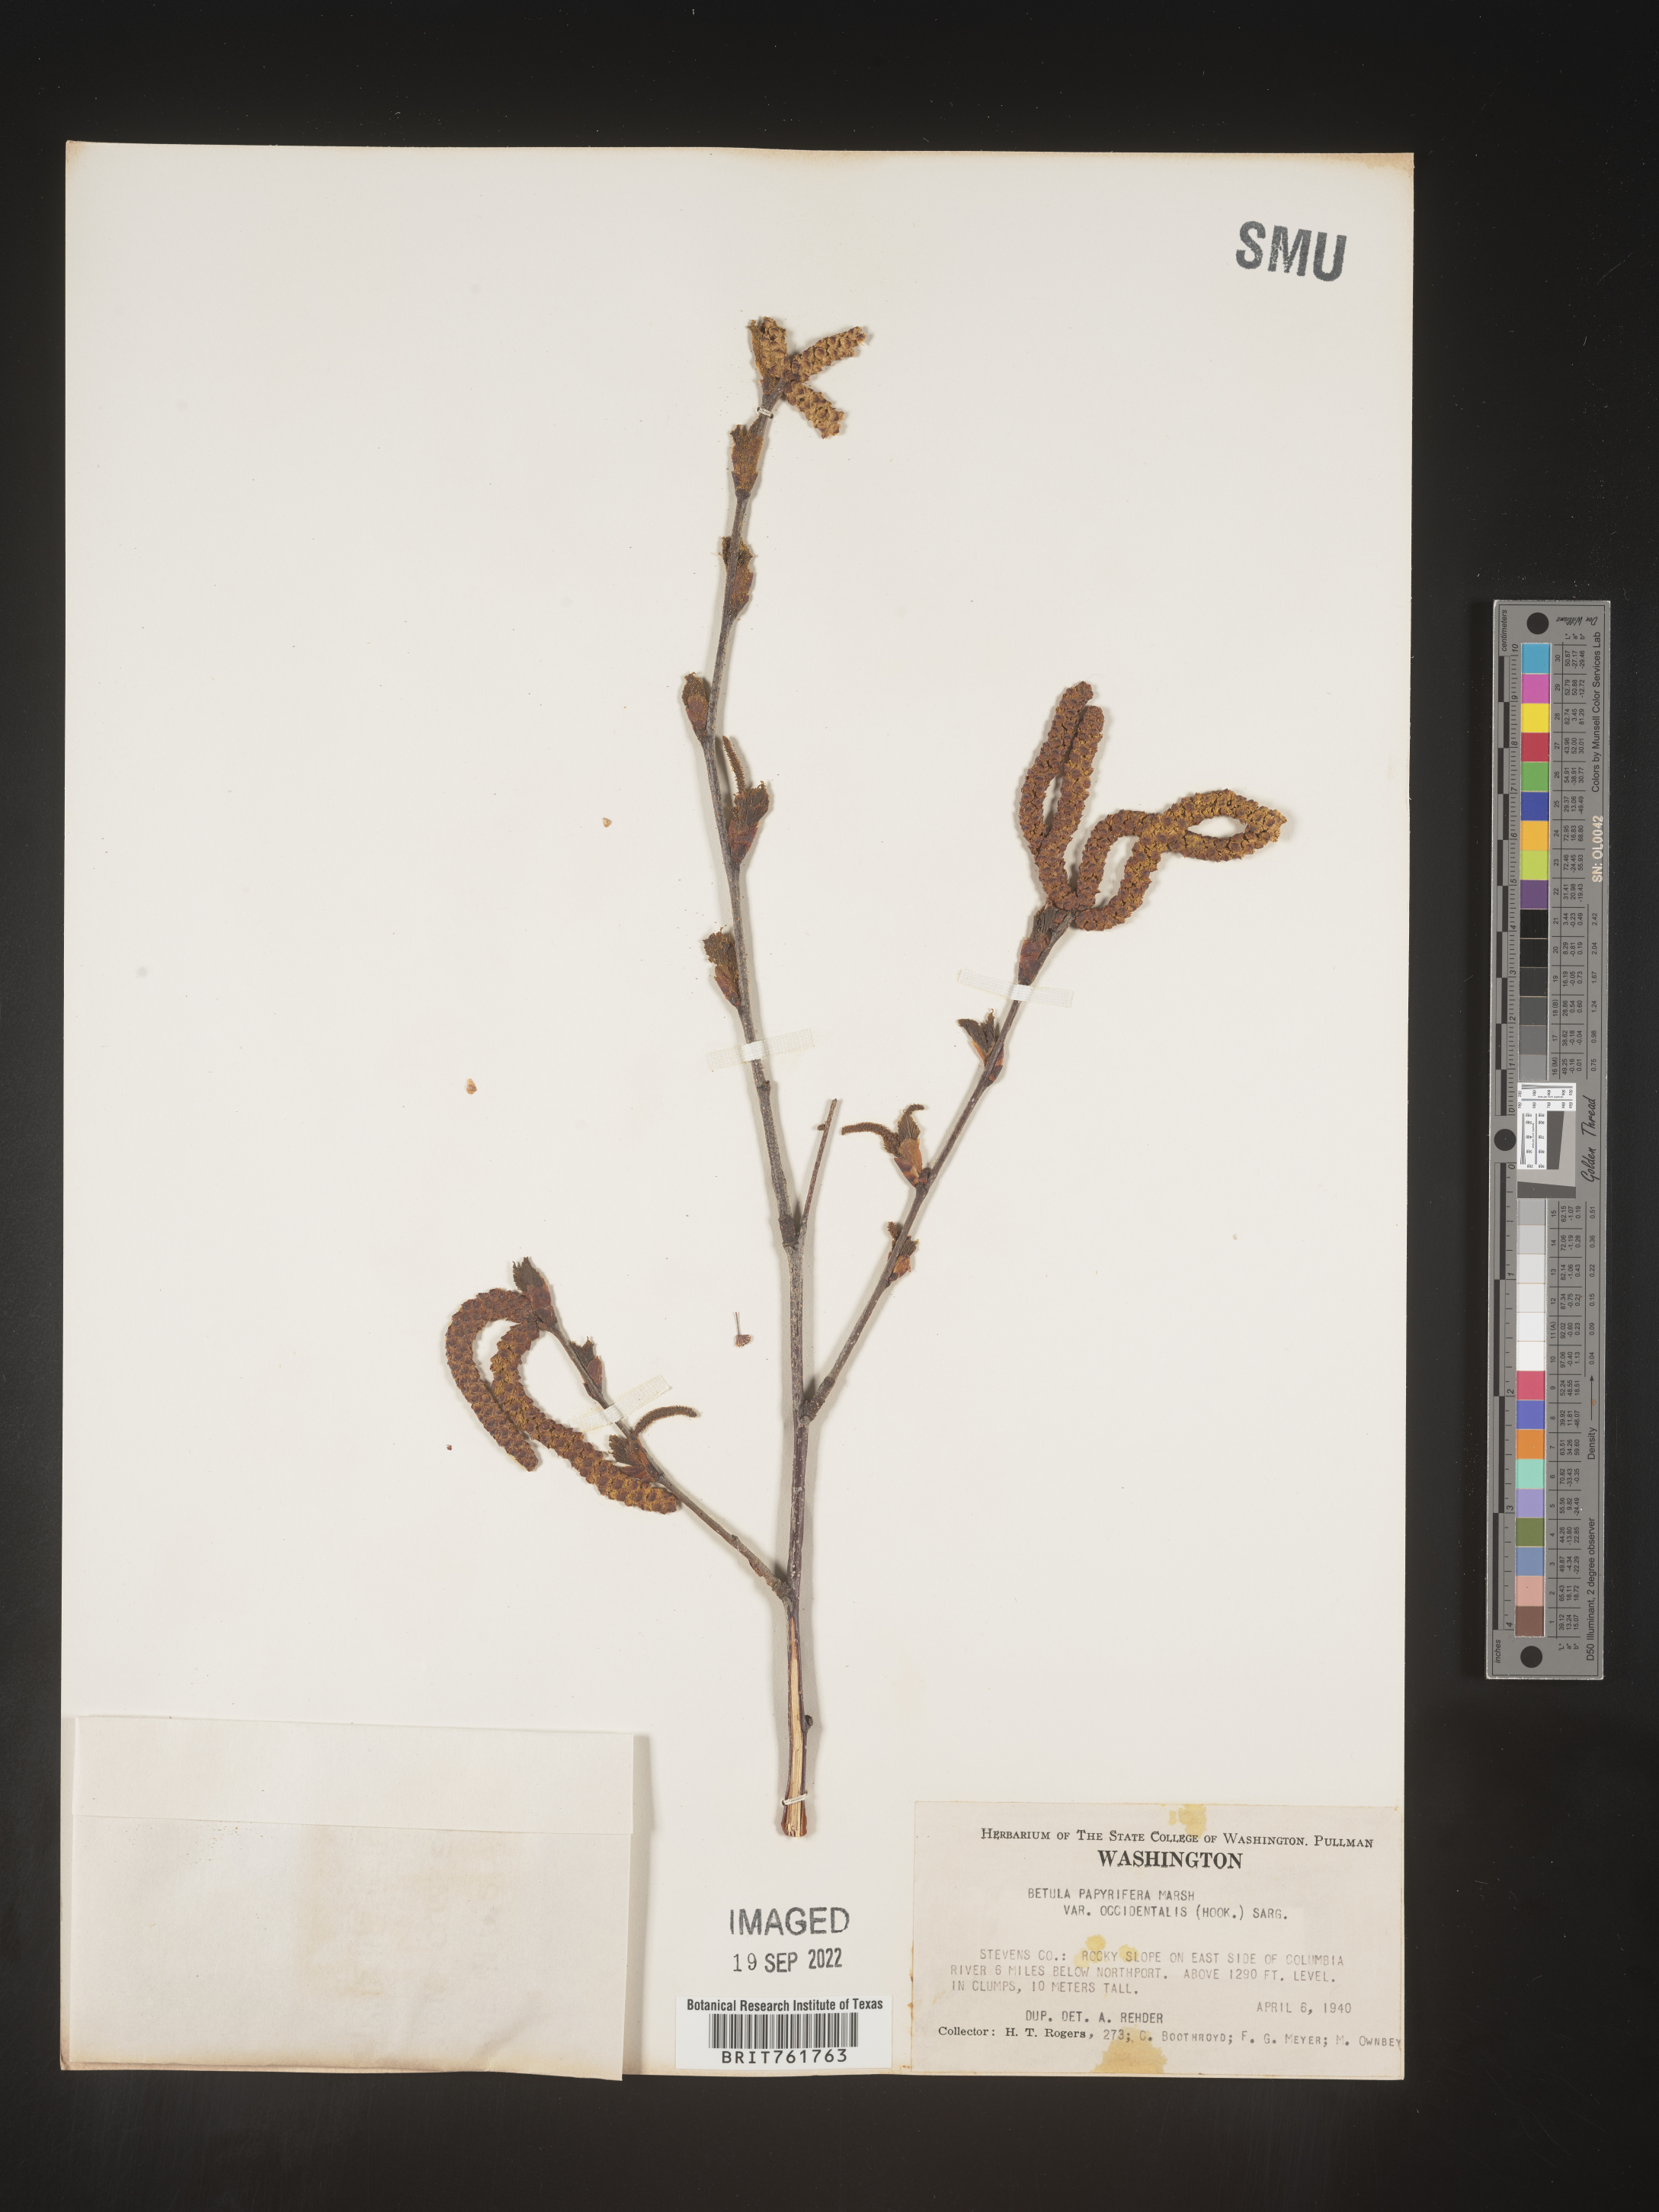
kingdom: Plantae
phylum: Tracheophyta
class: Magnoliopsida
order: Fagales
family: Betulaceae
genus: Betula
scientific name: Betula occidentalis
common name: River birch
